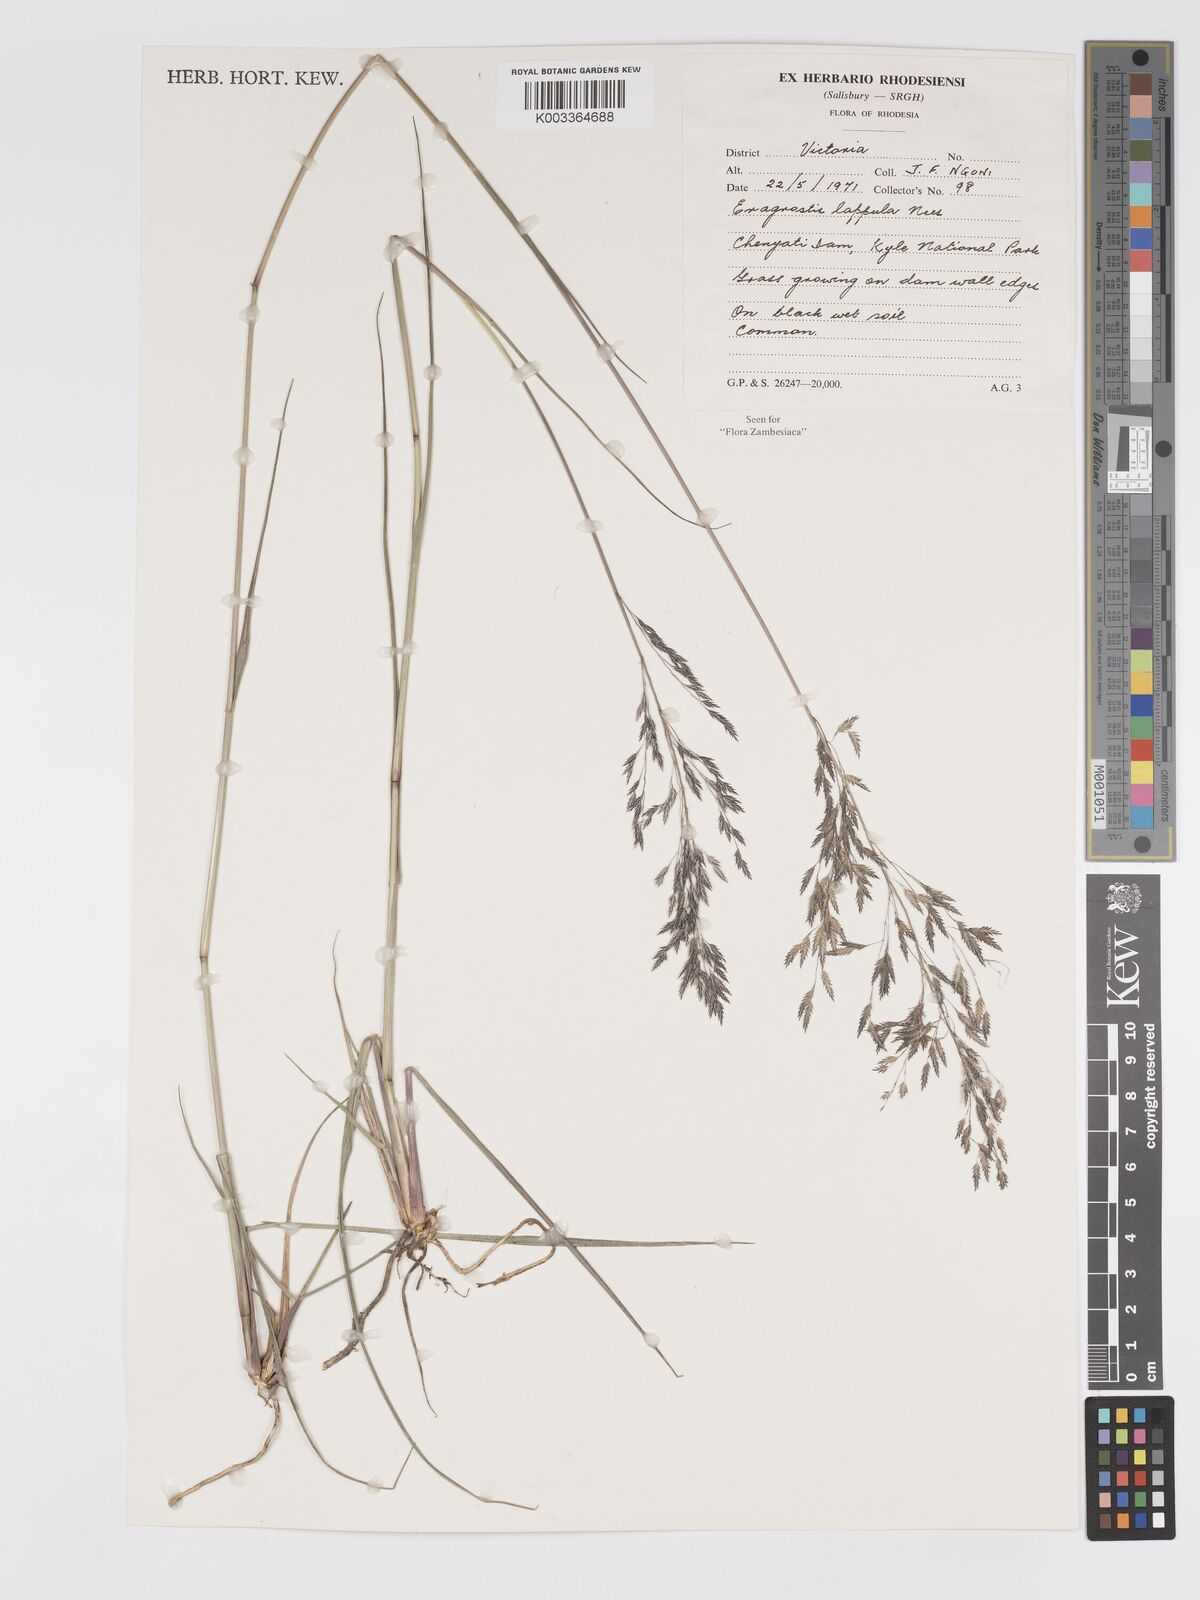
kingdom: Plantae
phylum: Tracheophyta
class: Liliopsida
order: Poales
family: Poaceae
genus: Eragrostis
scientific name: Eragrostis lappula
